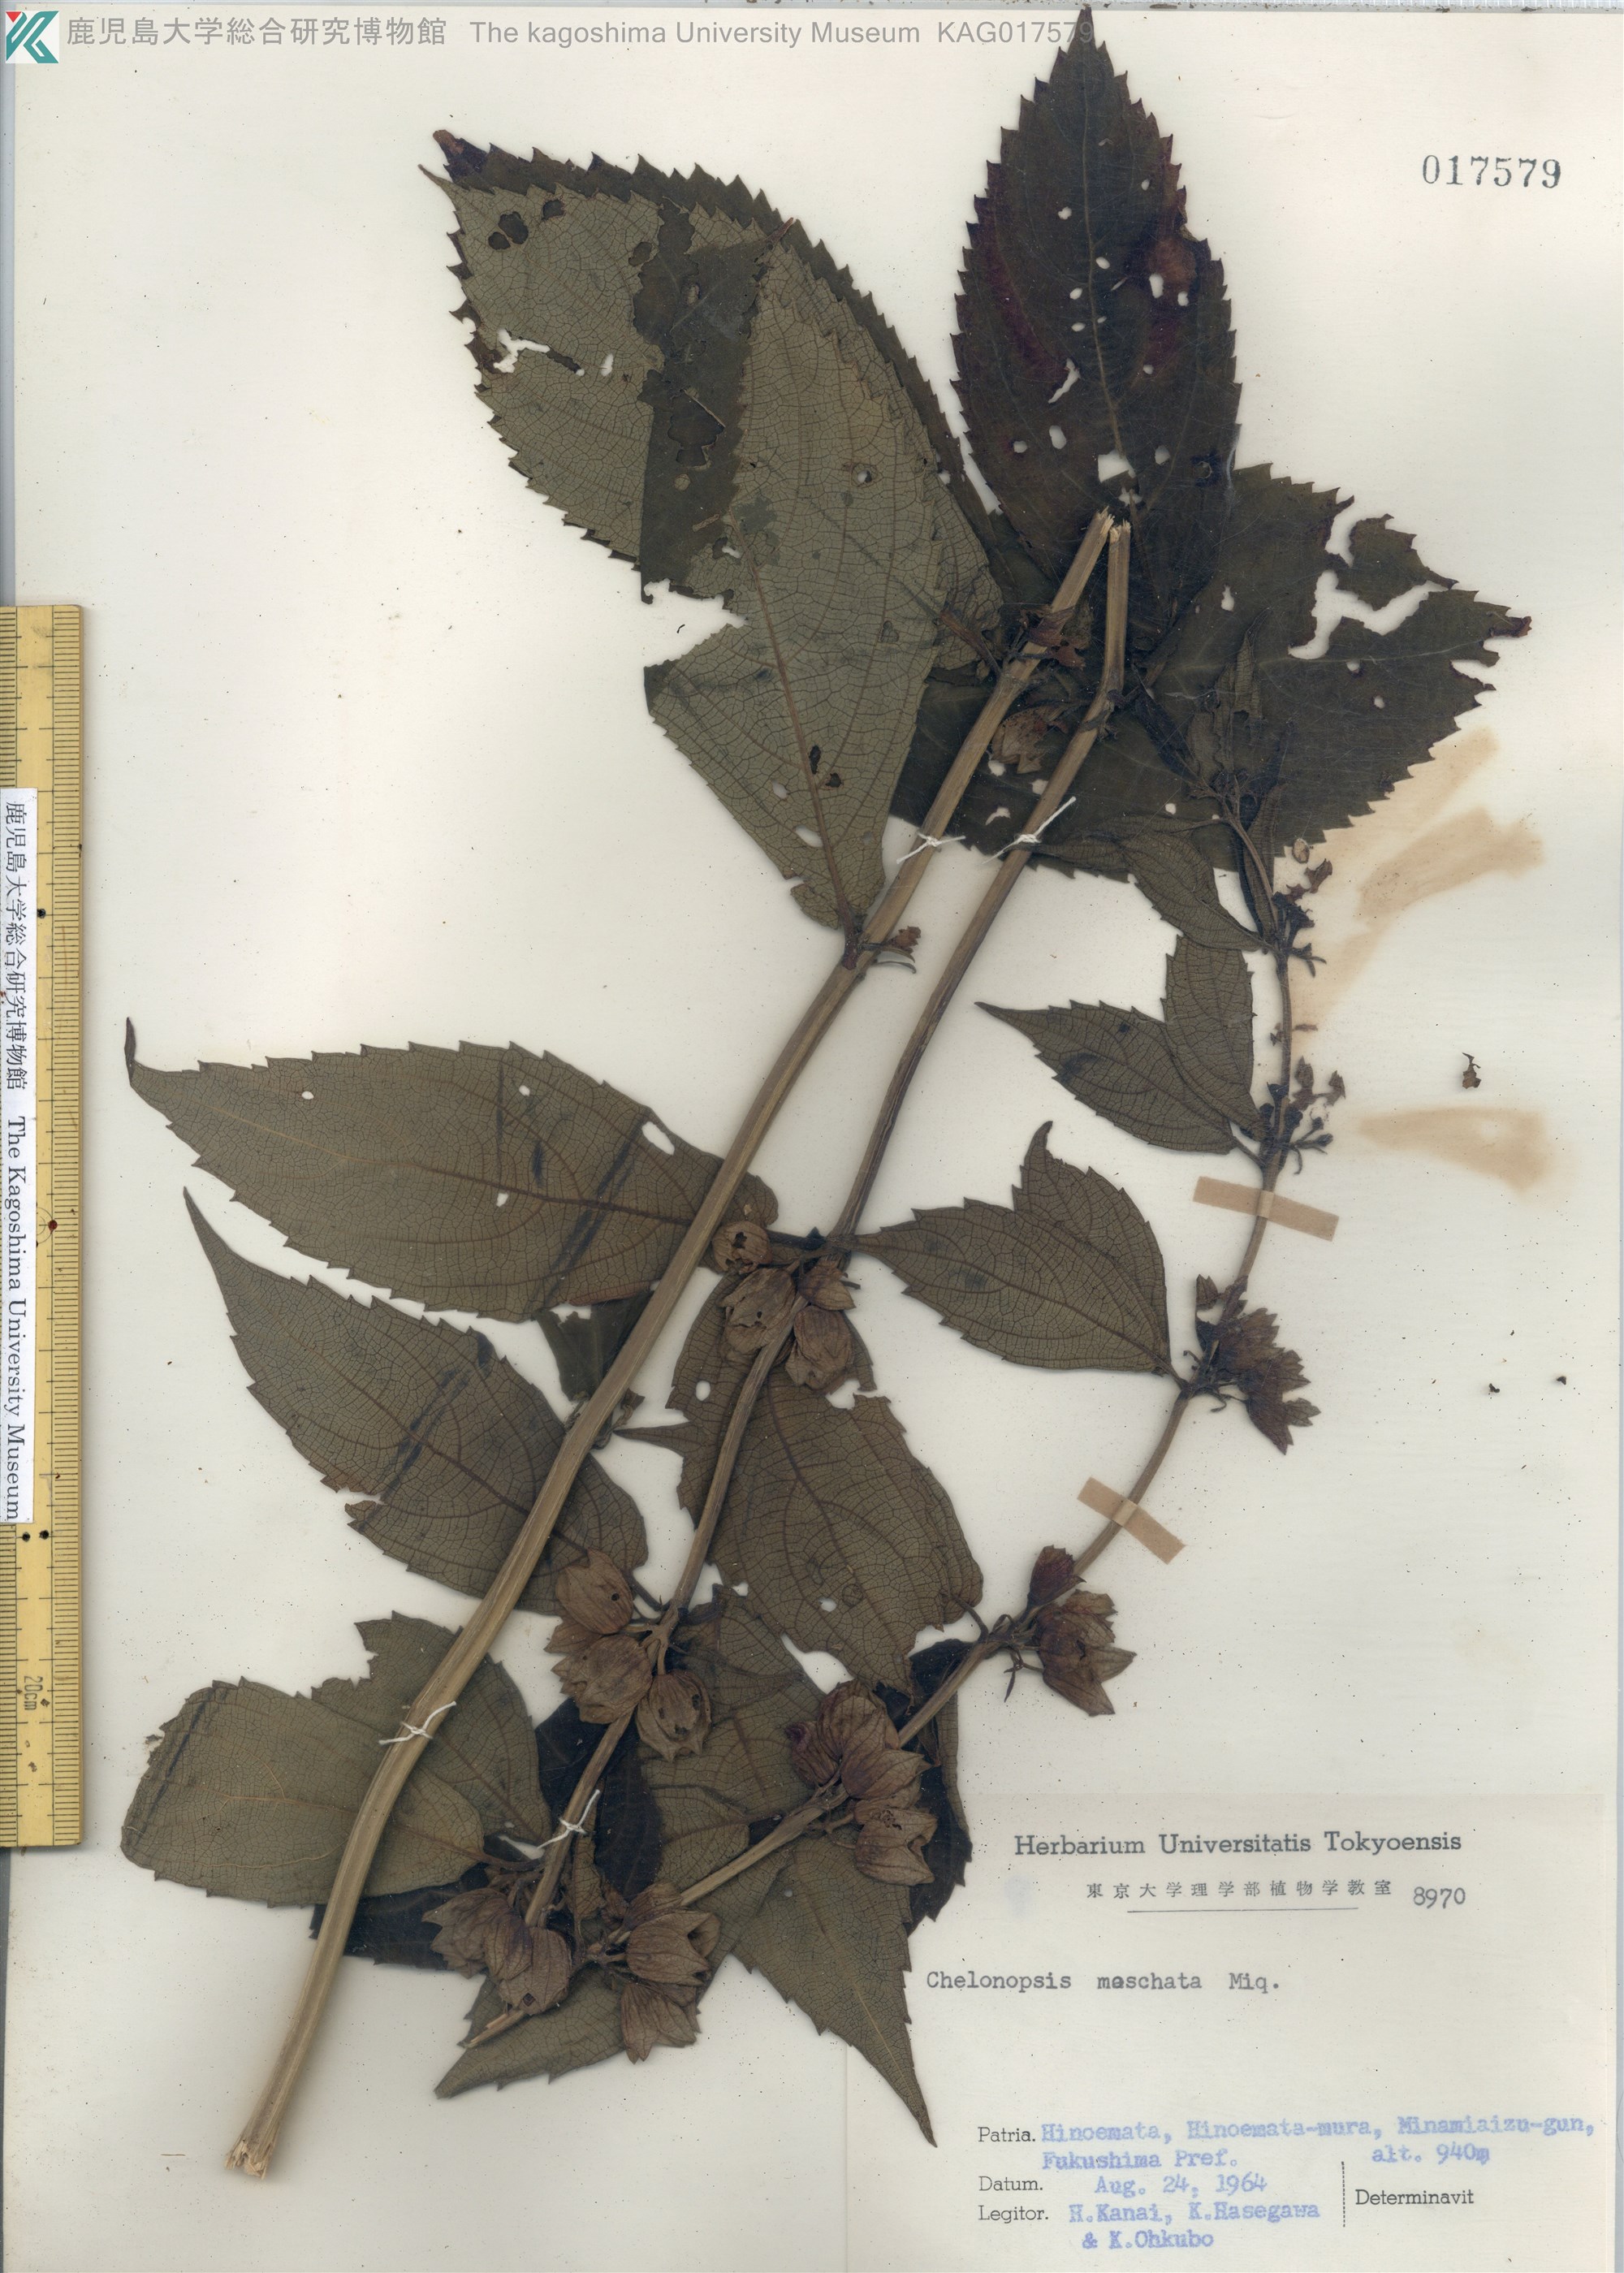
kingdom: Plantae
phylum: Tracheophyta
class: Magnoliopsida
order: Lamiales
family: Lamiaceae
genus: Chelonopsis
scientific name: Chelonopsis moschata
